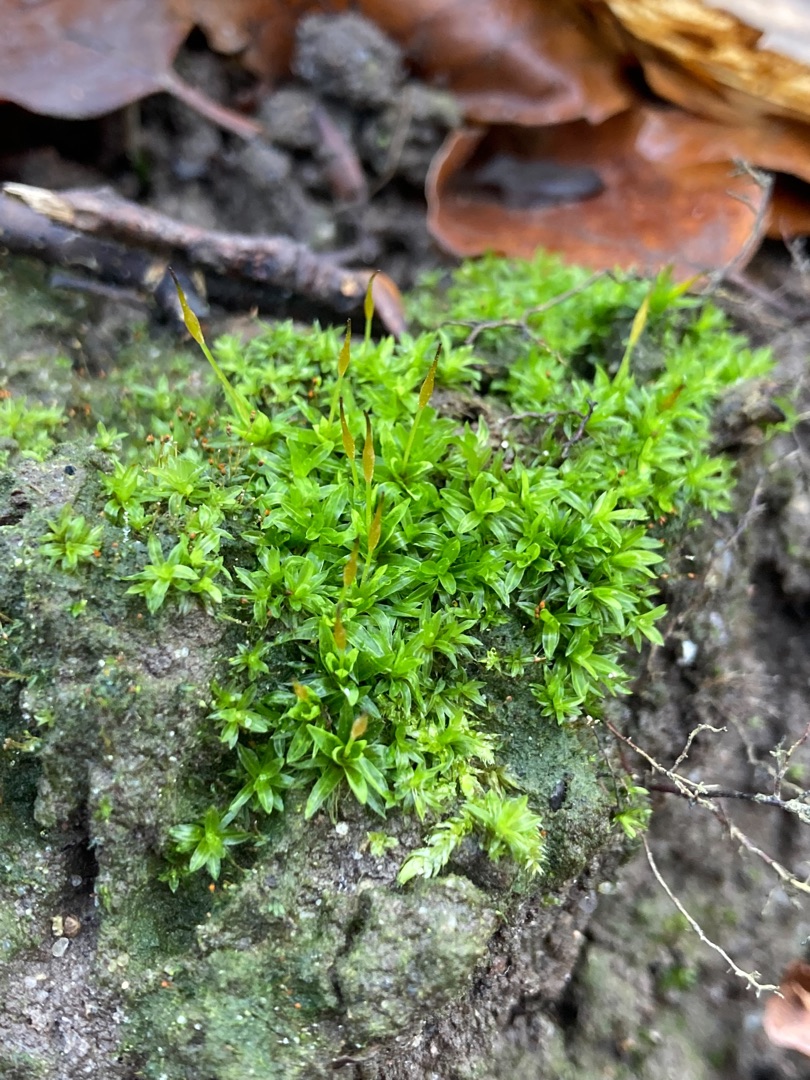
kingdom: Plantae
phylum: Bryophyta
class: Bryopsida
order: Pottiales
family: Pottiaceae
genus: Tortula
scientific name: Tortula schimperi
